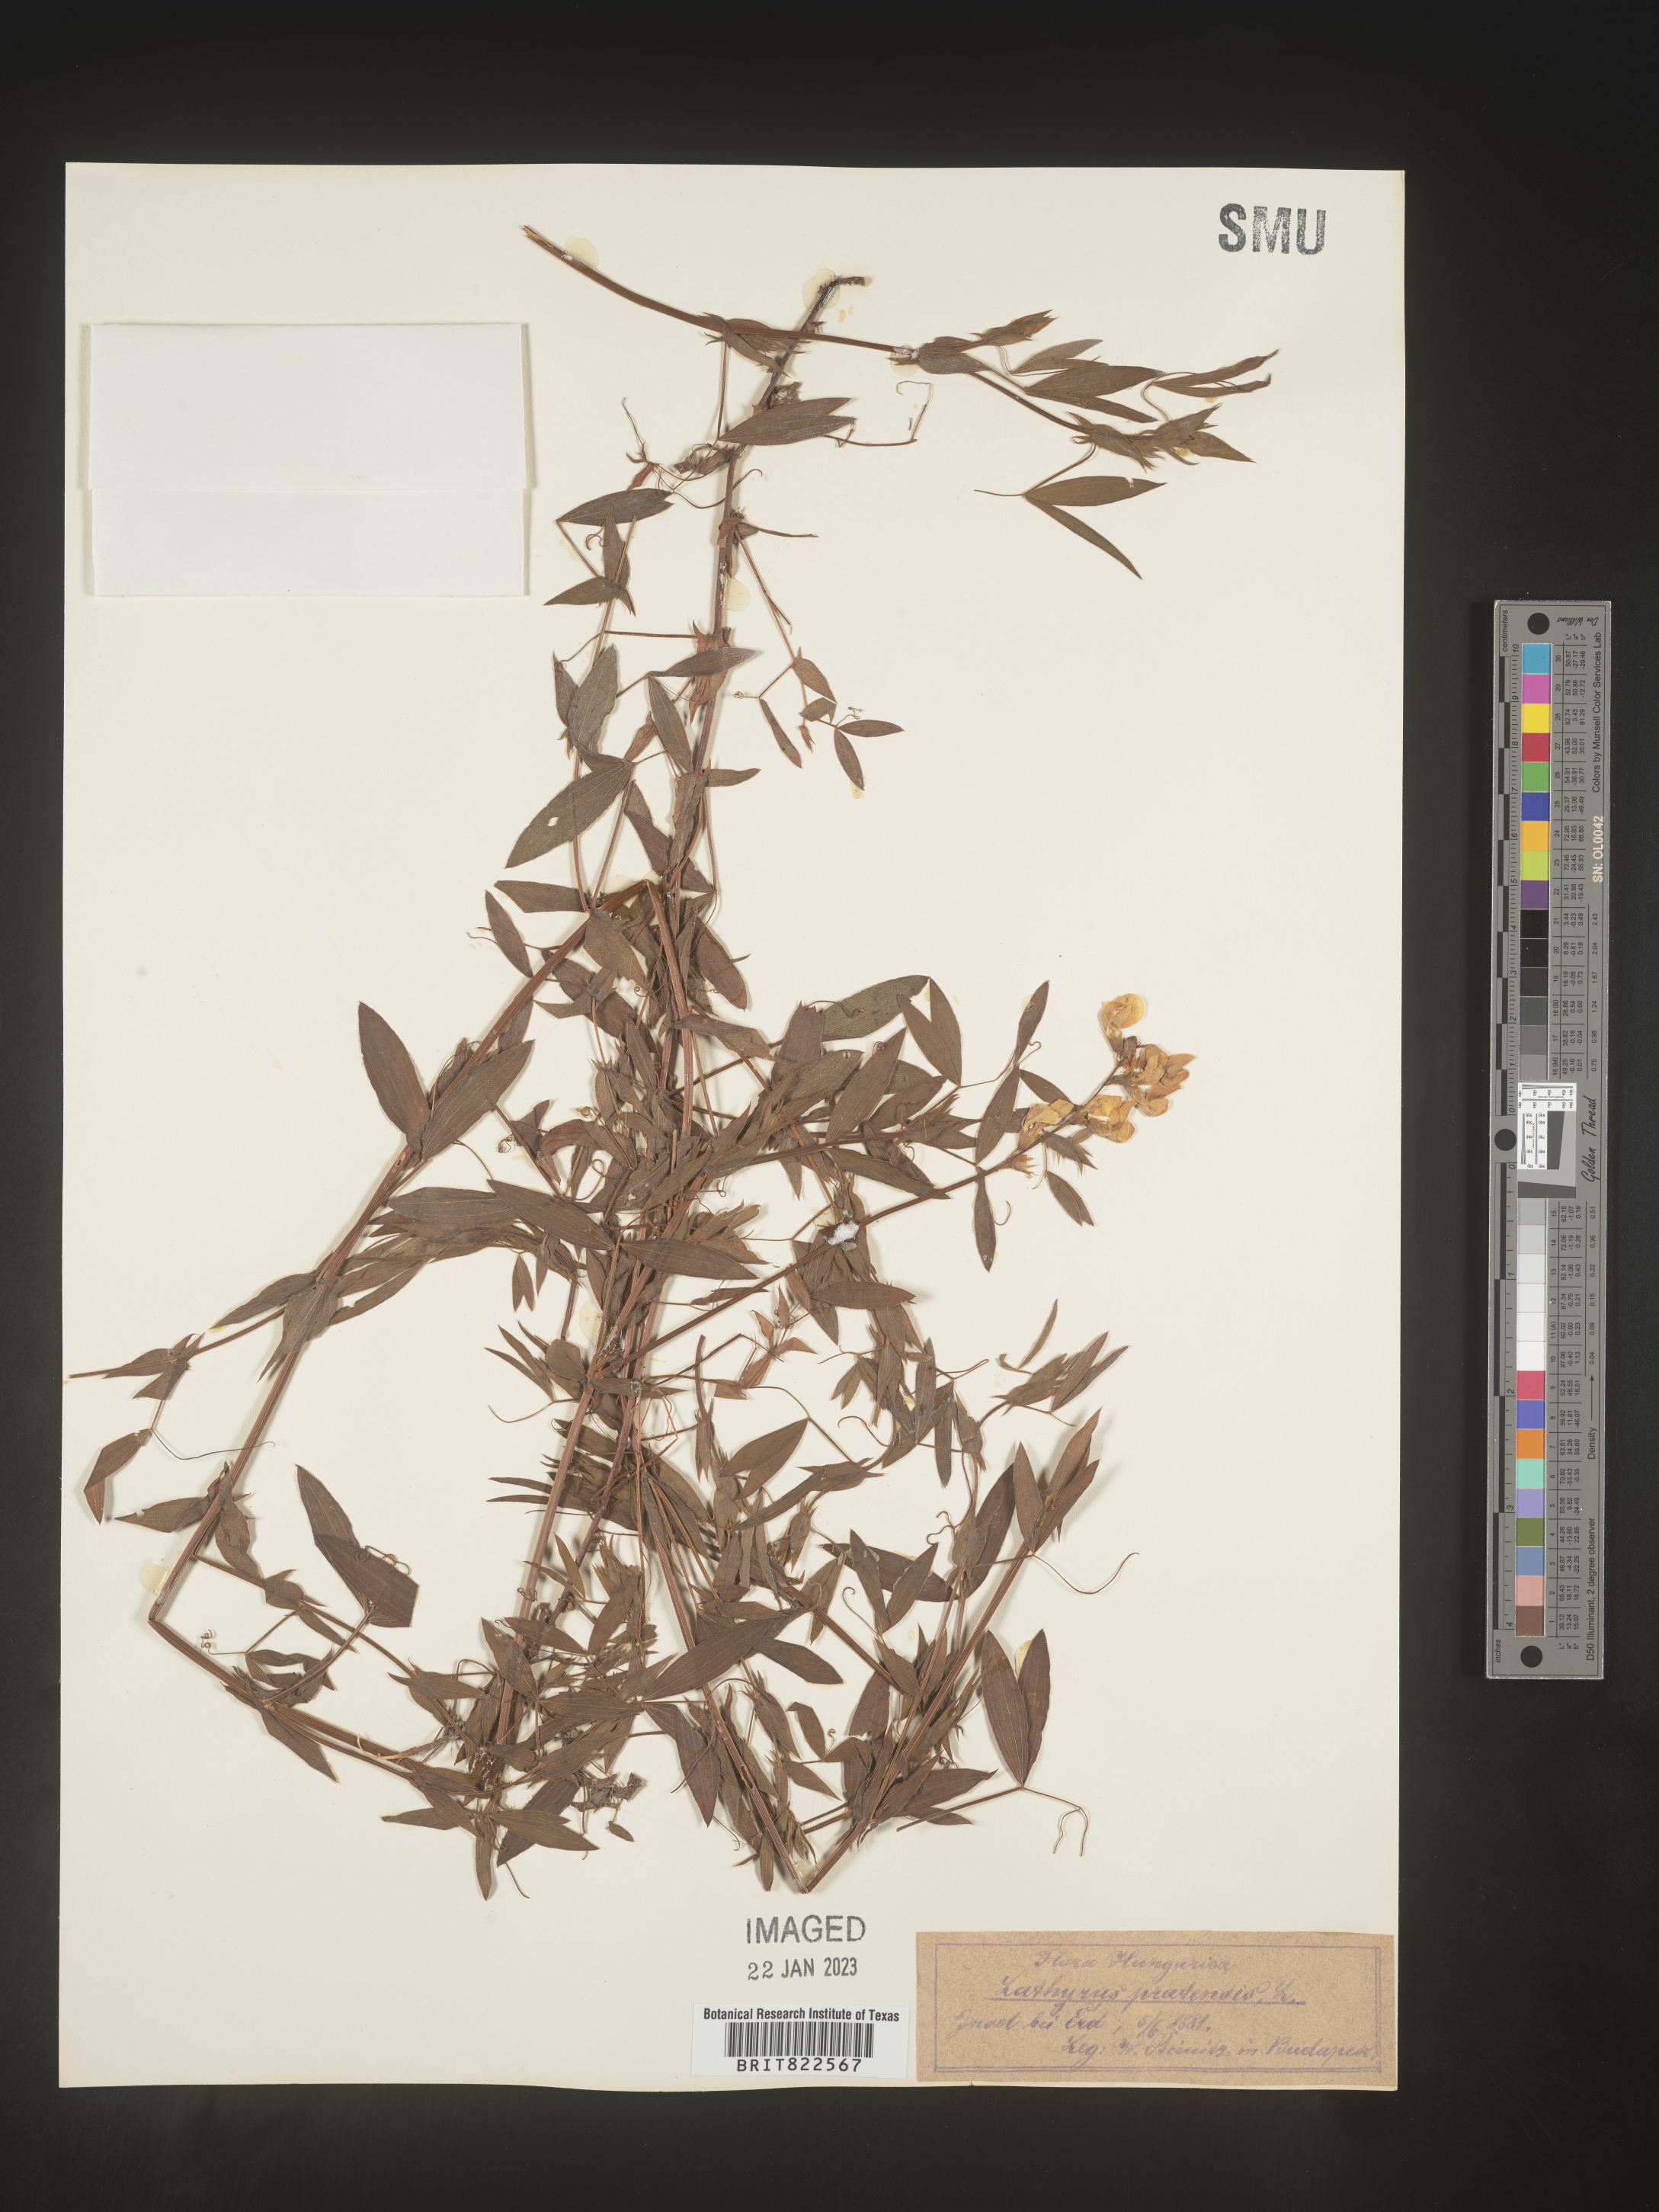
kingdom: Plantae
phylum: Tracheophyta
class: Magnoliopsida
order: Fabales
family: Fabaceae
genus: Lathyrus
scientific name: Lathyrus
